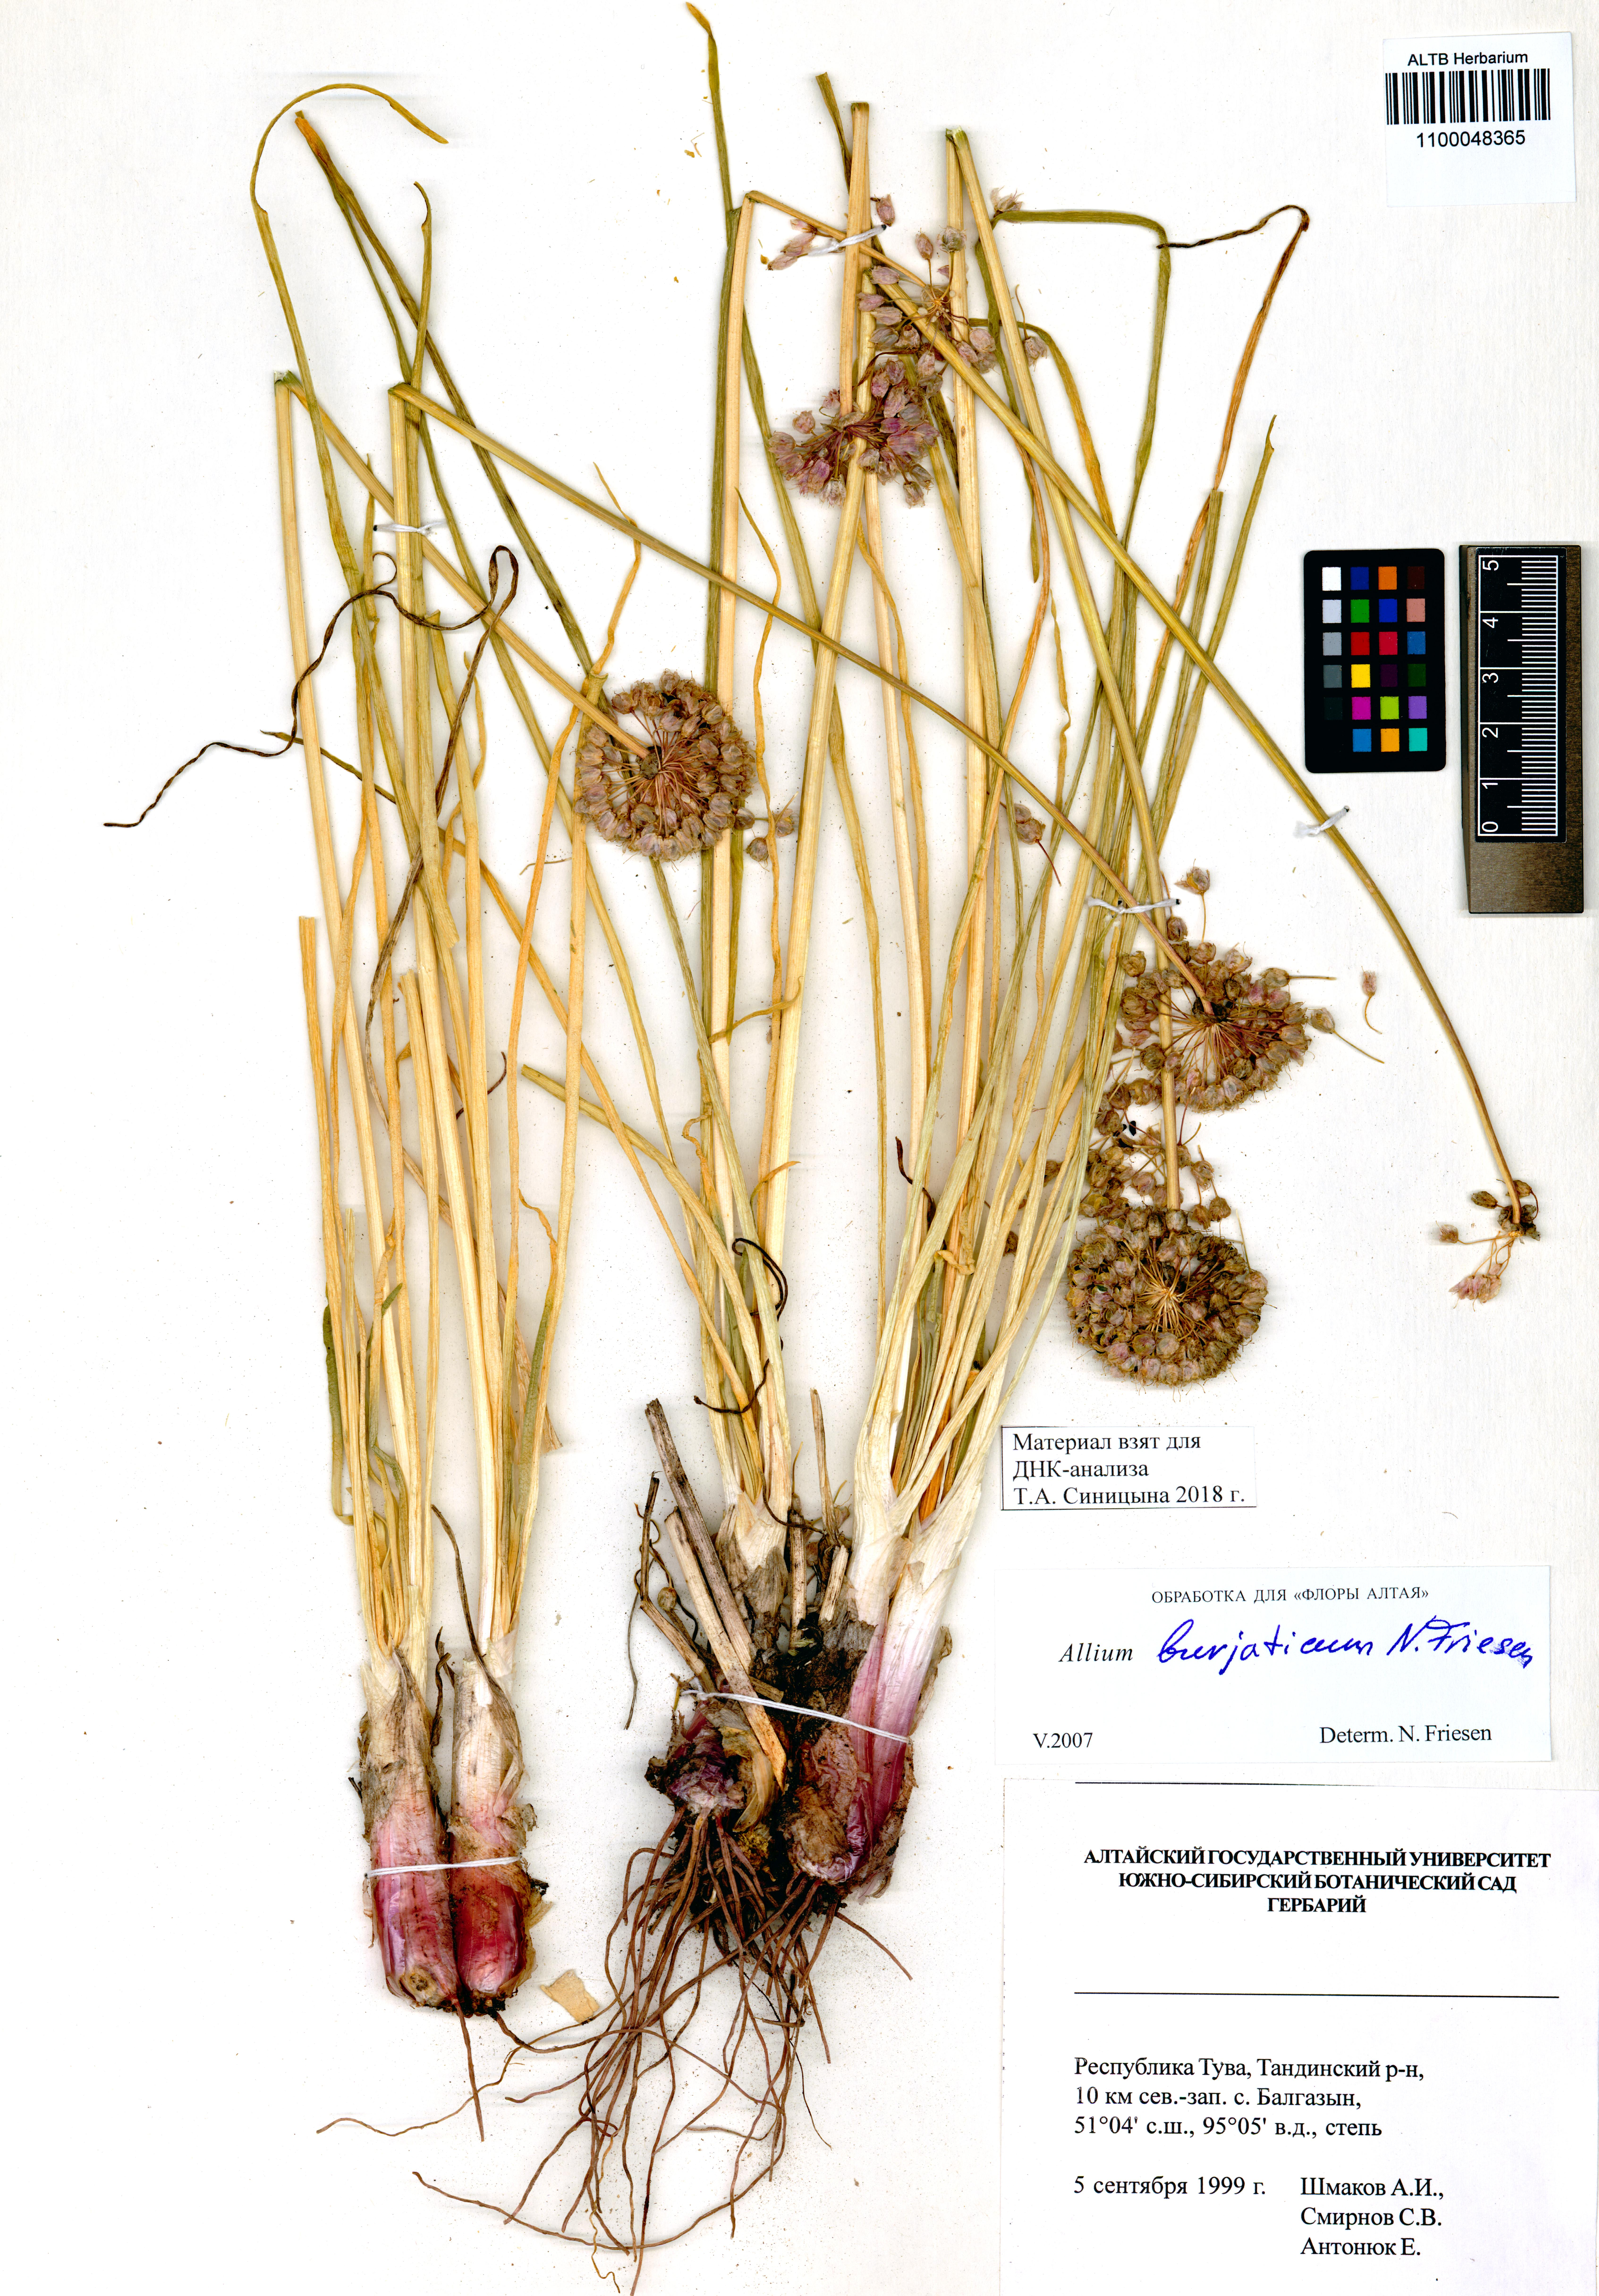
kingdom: Plantae
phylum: Tracheophyta
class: Liliopsida
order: Asparagales
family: Amaryllidaceae
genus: Allium
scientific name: Allium burjaticum
